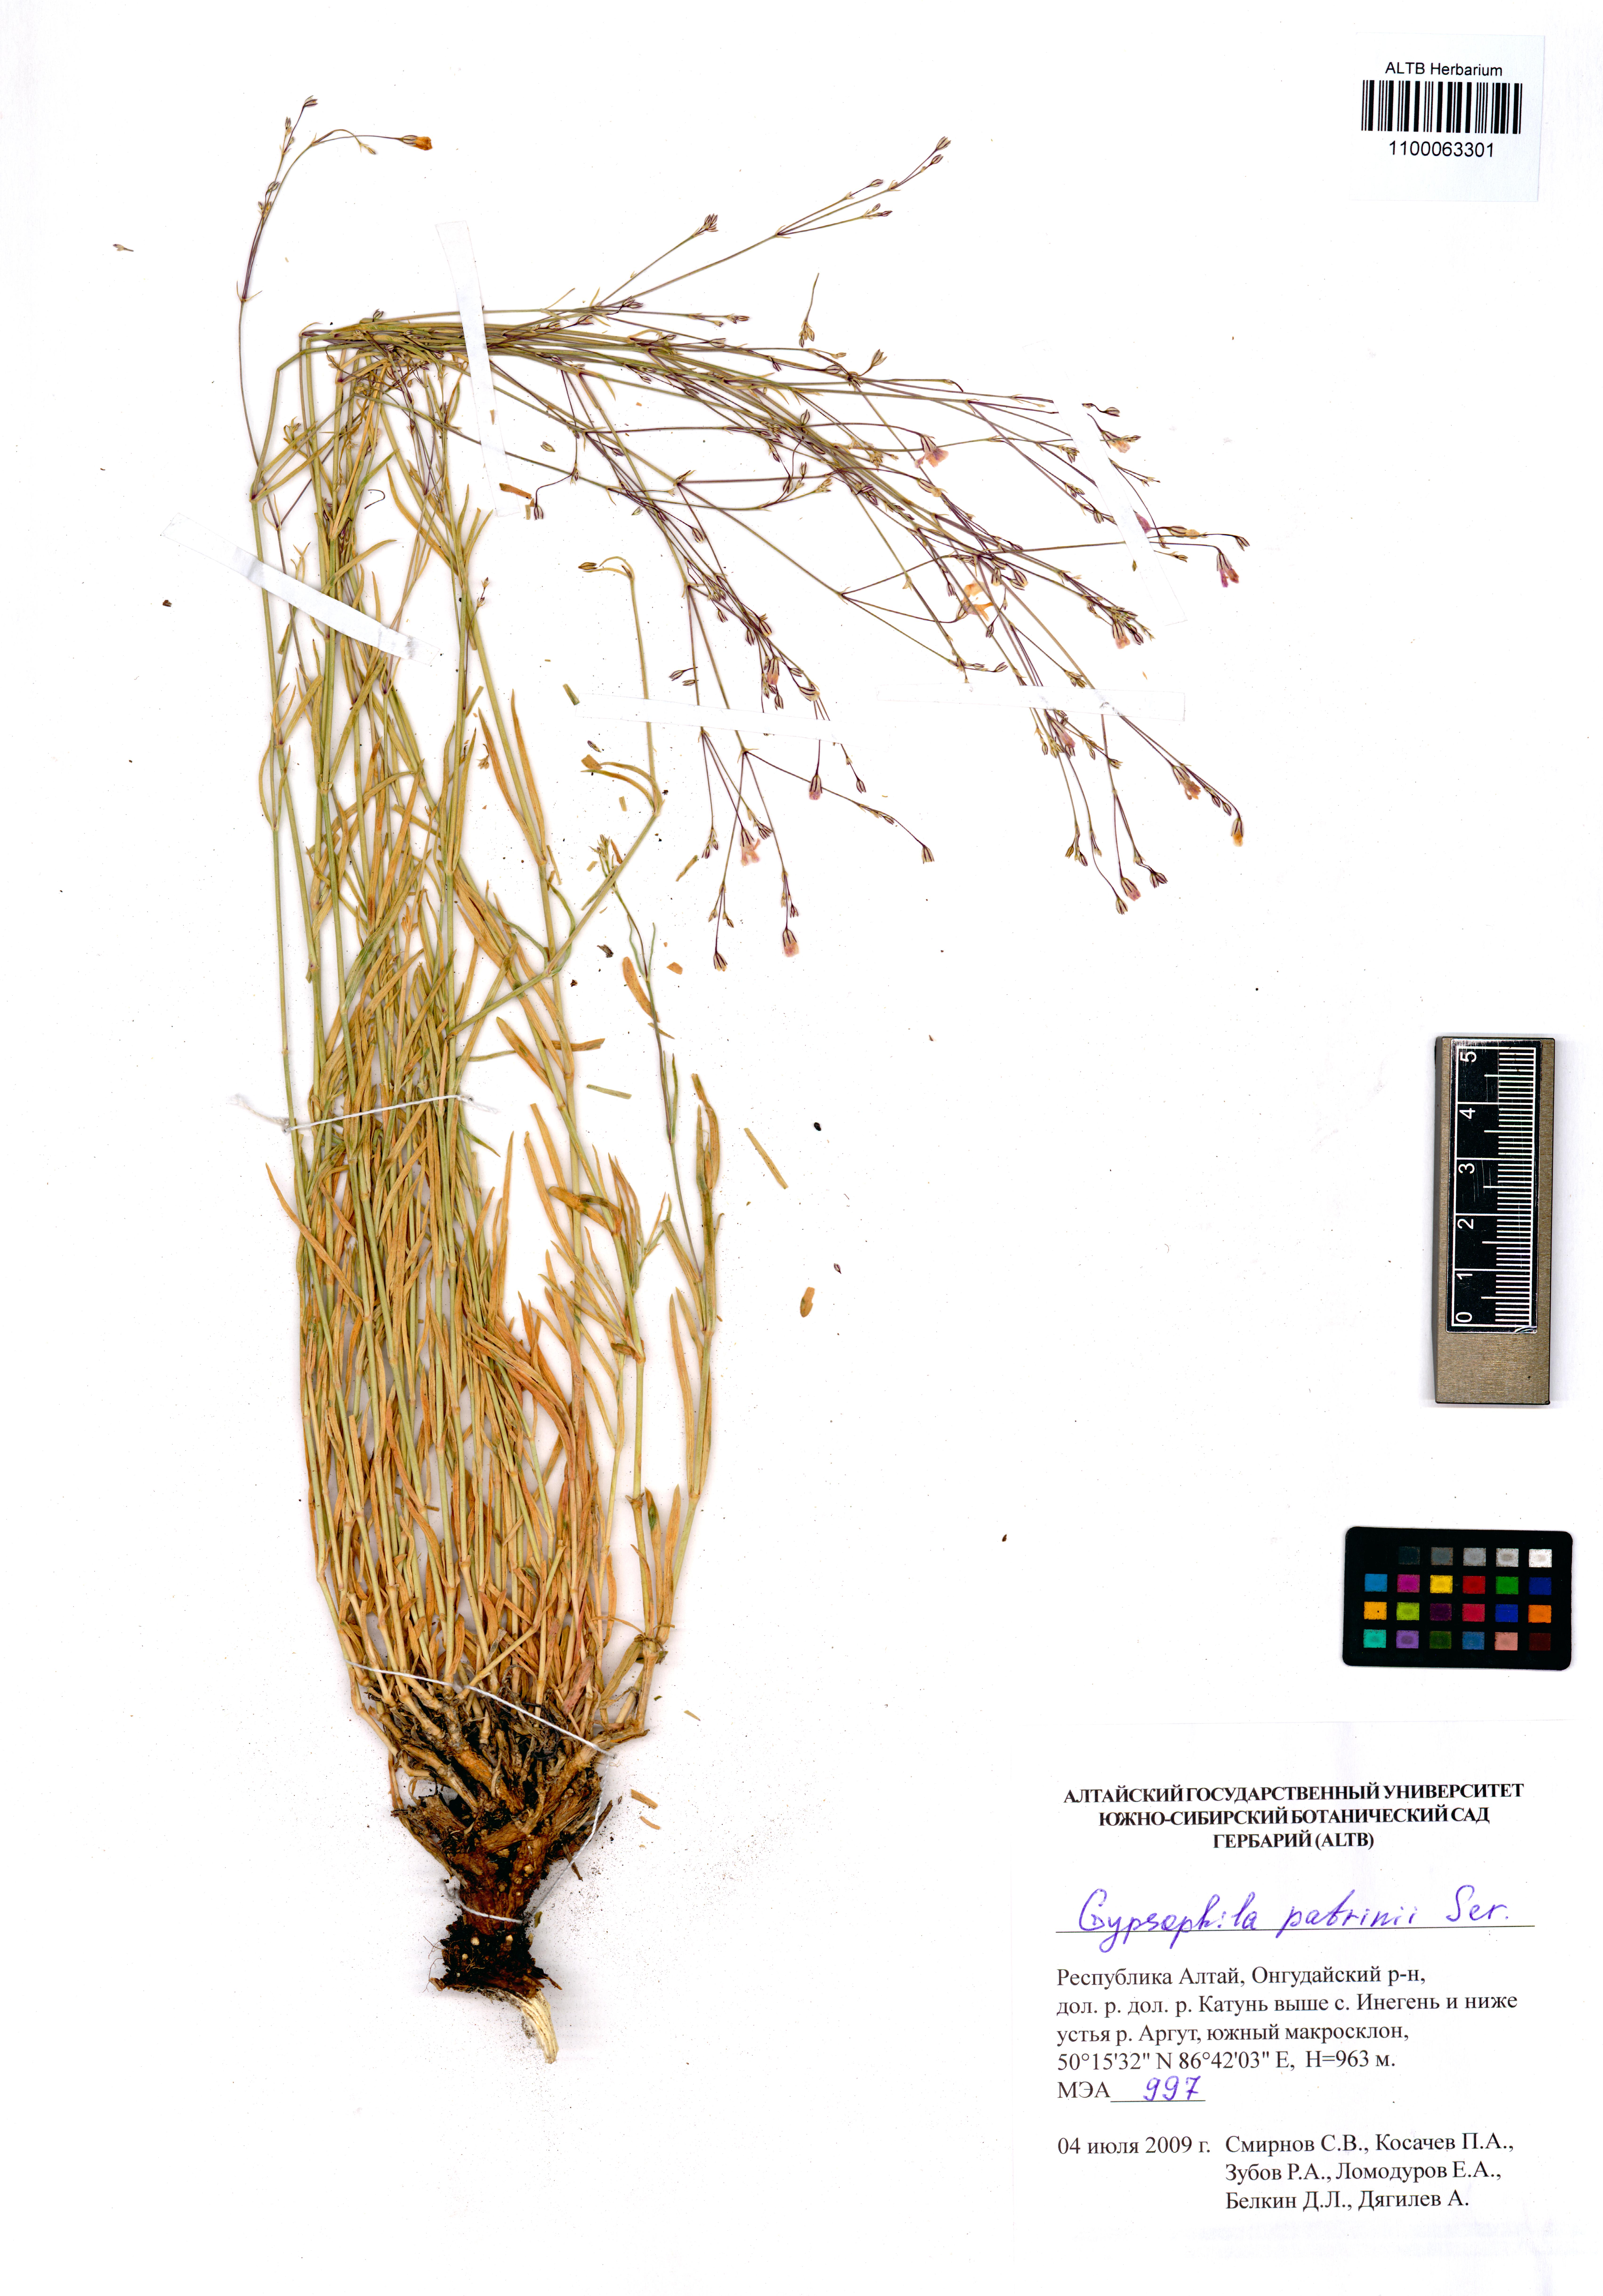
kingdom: Plantae
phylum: Tracheophyta
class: Magnoliopsida
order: Caryophyllales
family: Caryophyllaceae
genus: Gypsophila
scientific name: Gypsophila patrinii
